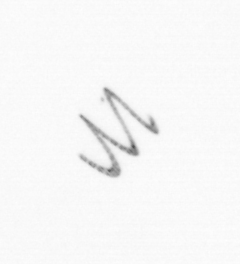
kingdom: Chromista
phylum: Ochrophyta
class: Bacillariophyceae
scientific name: Bacillariophyceae
